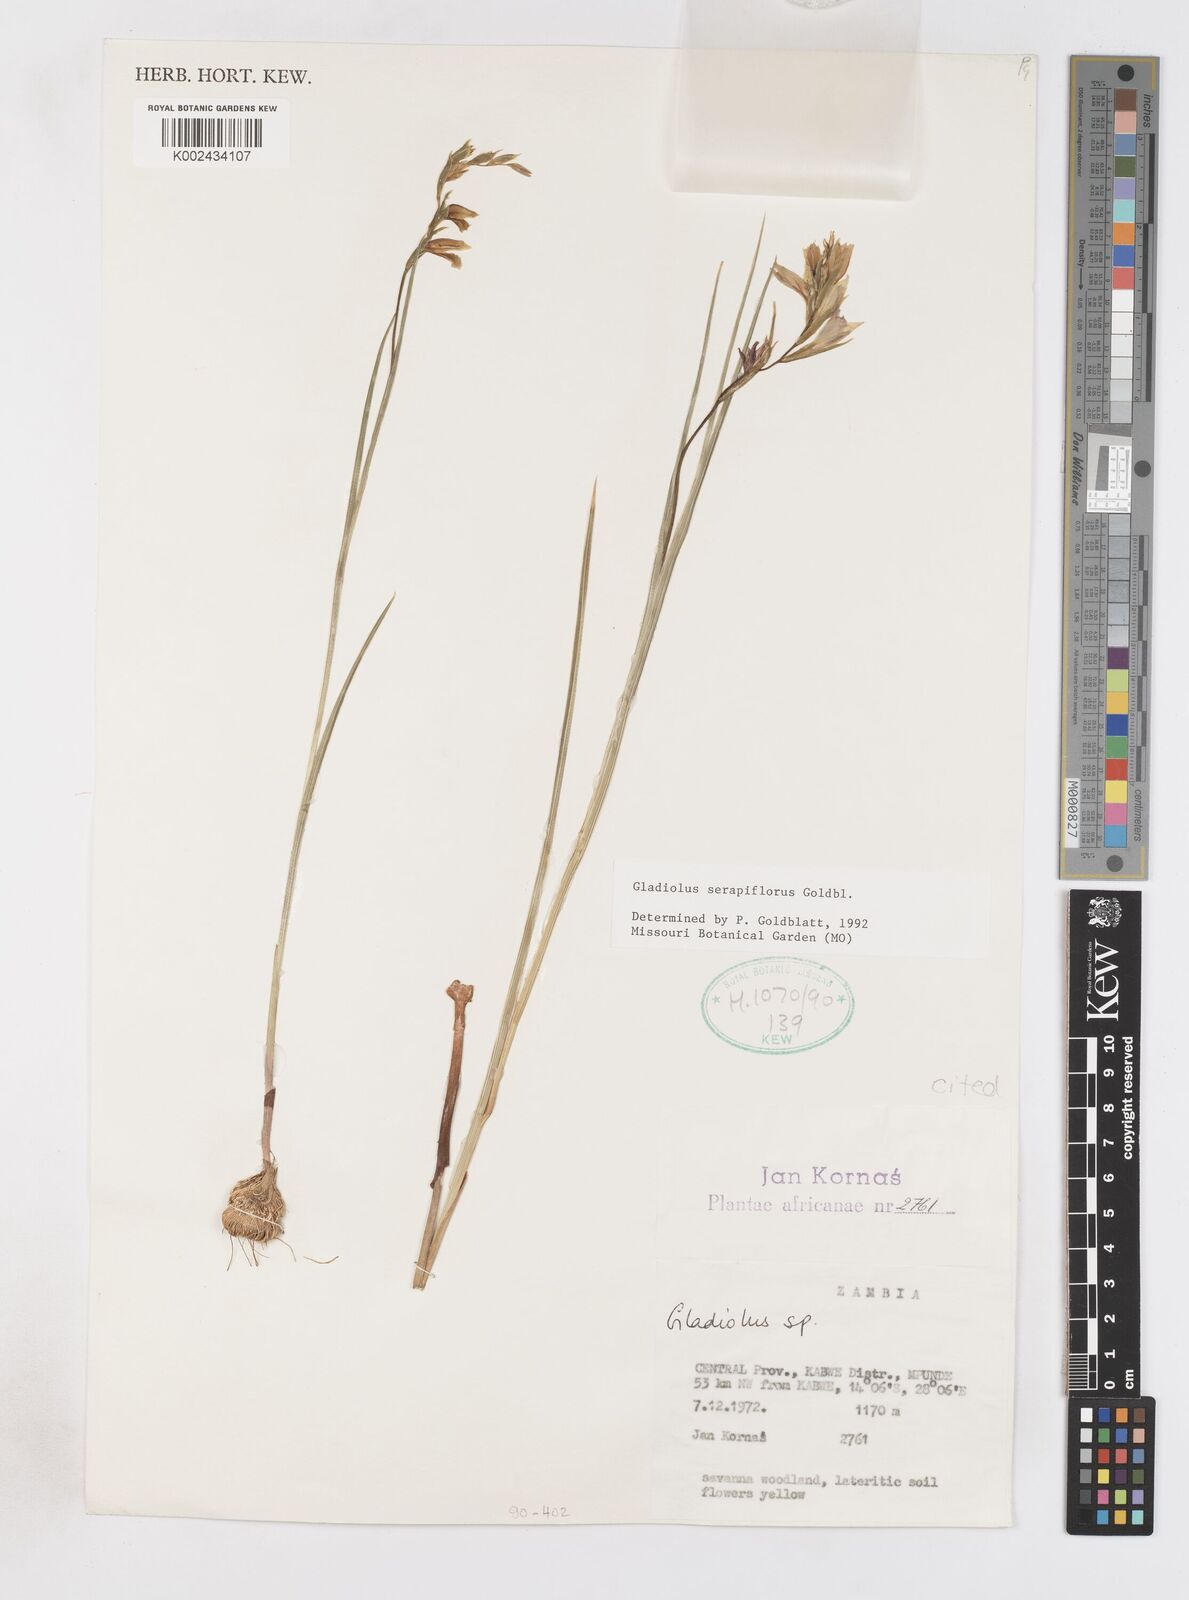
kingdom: Plantae
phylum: Tracheophyta
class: Liliopsida
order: Asparagales
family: Iridaceae
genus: Gladiolus
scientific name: Gladiolus serapiiflorus
